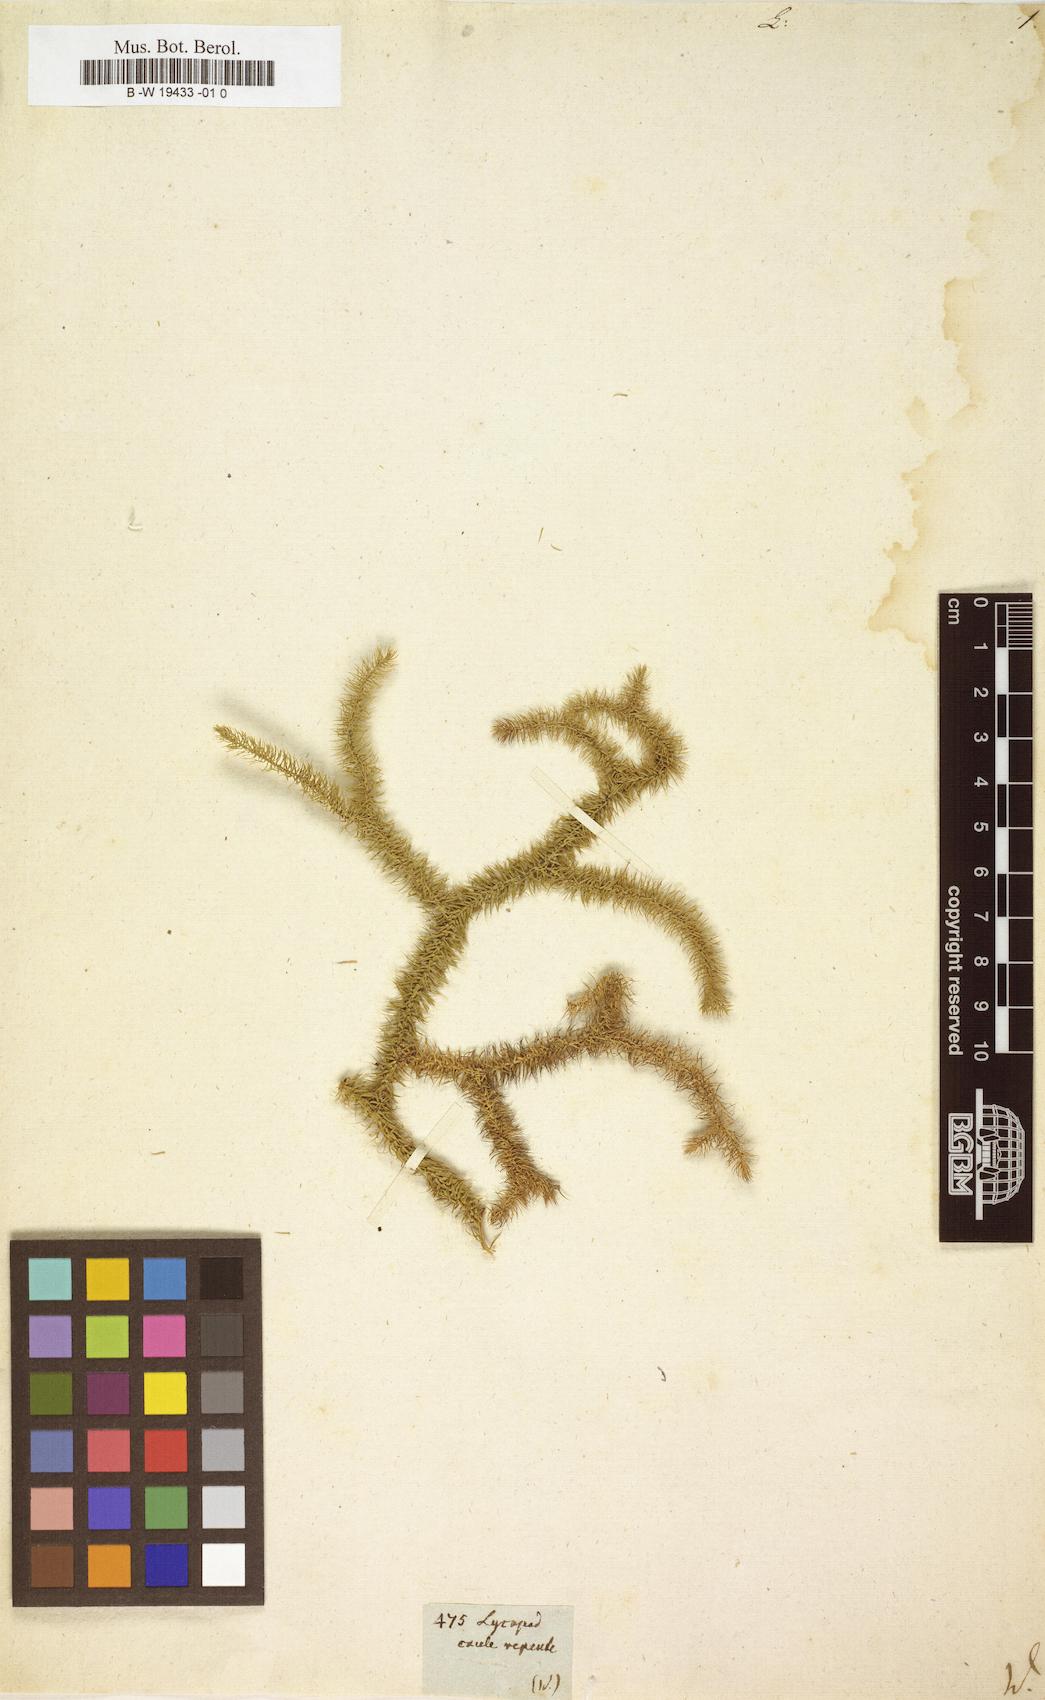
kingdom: Plantae
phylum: Tracheophyta
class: Lycopodiopsida
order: Lycopodiales
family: Lycopodiaceae
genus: Lycopodium
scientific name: Lycopodium
